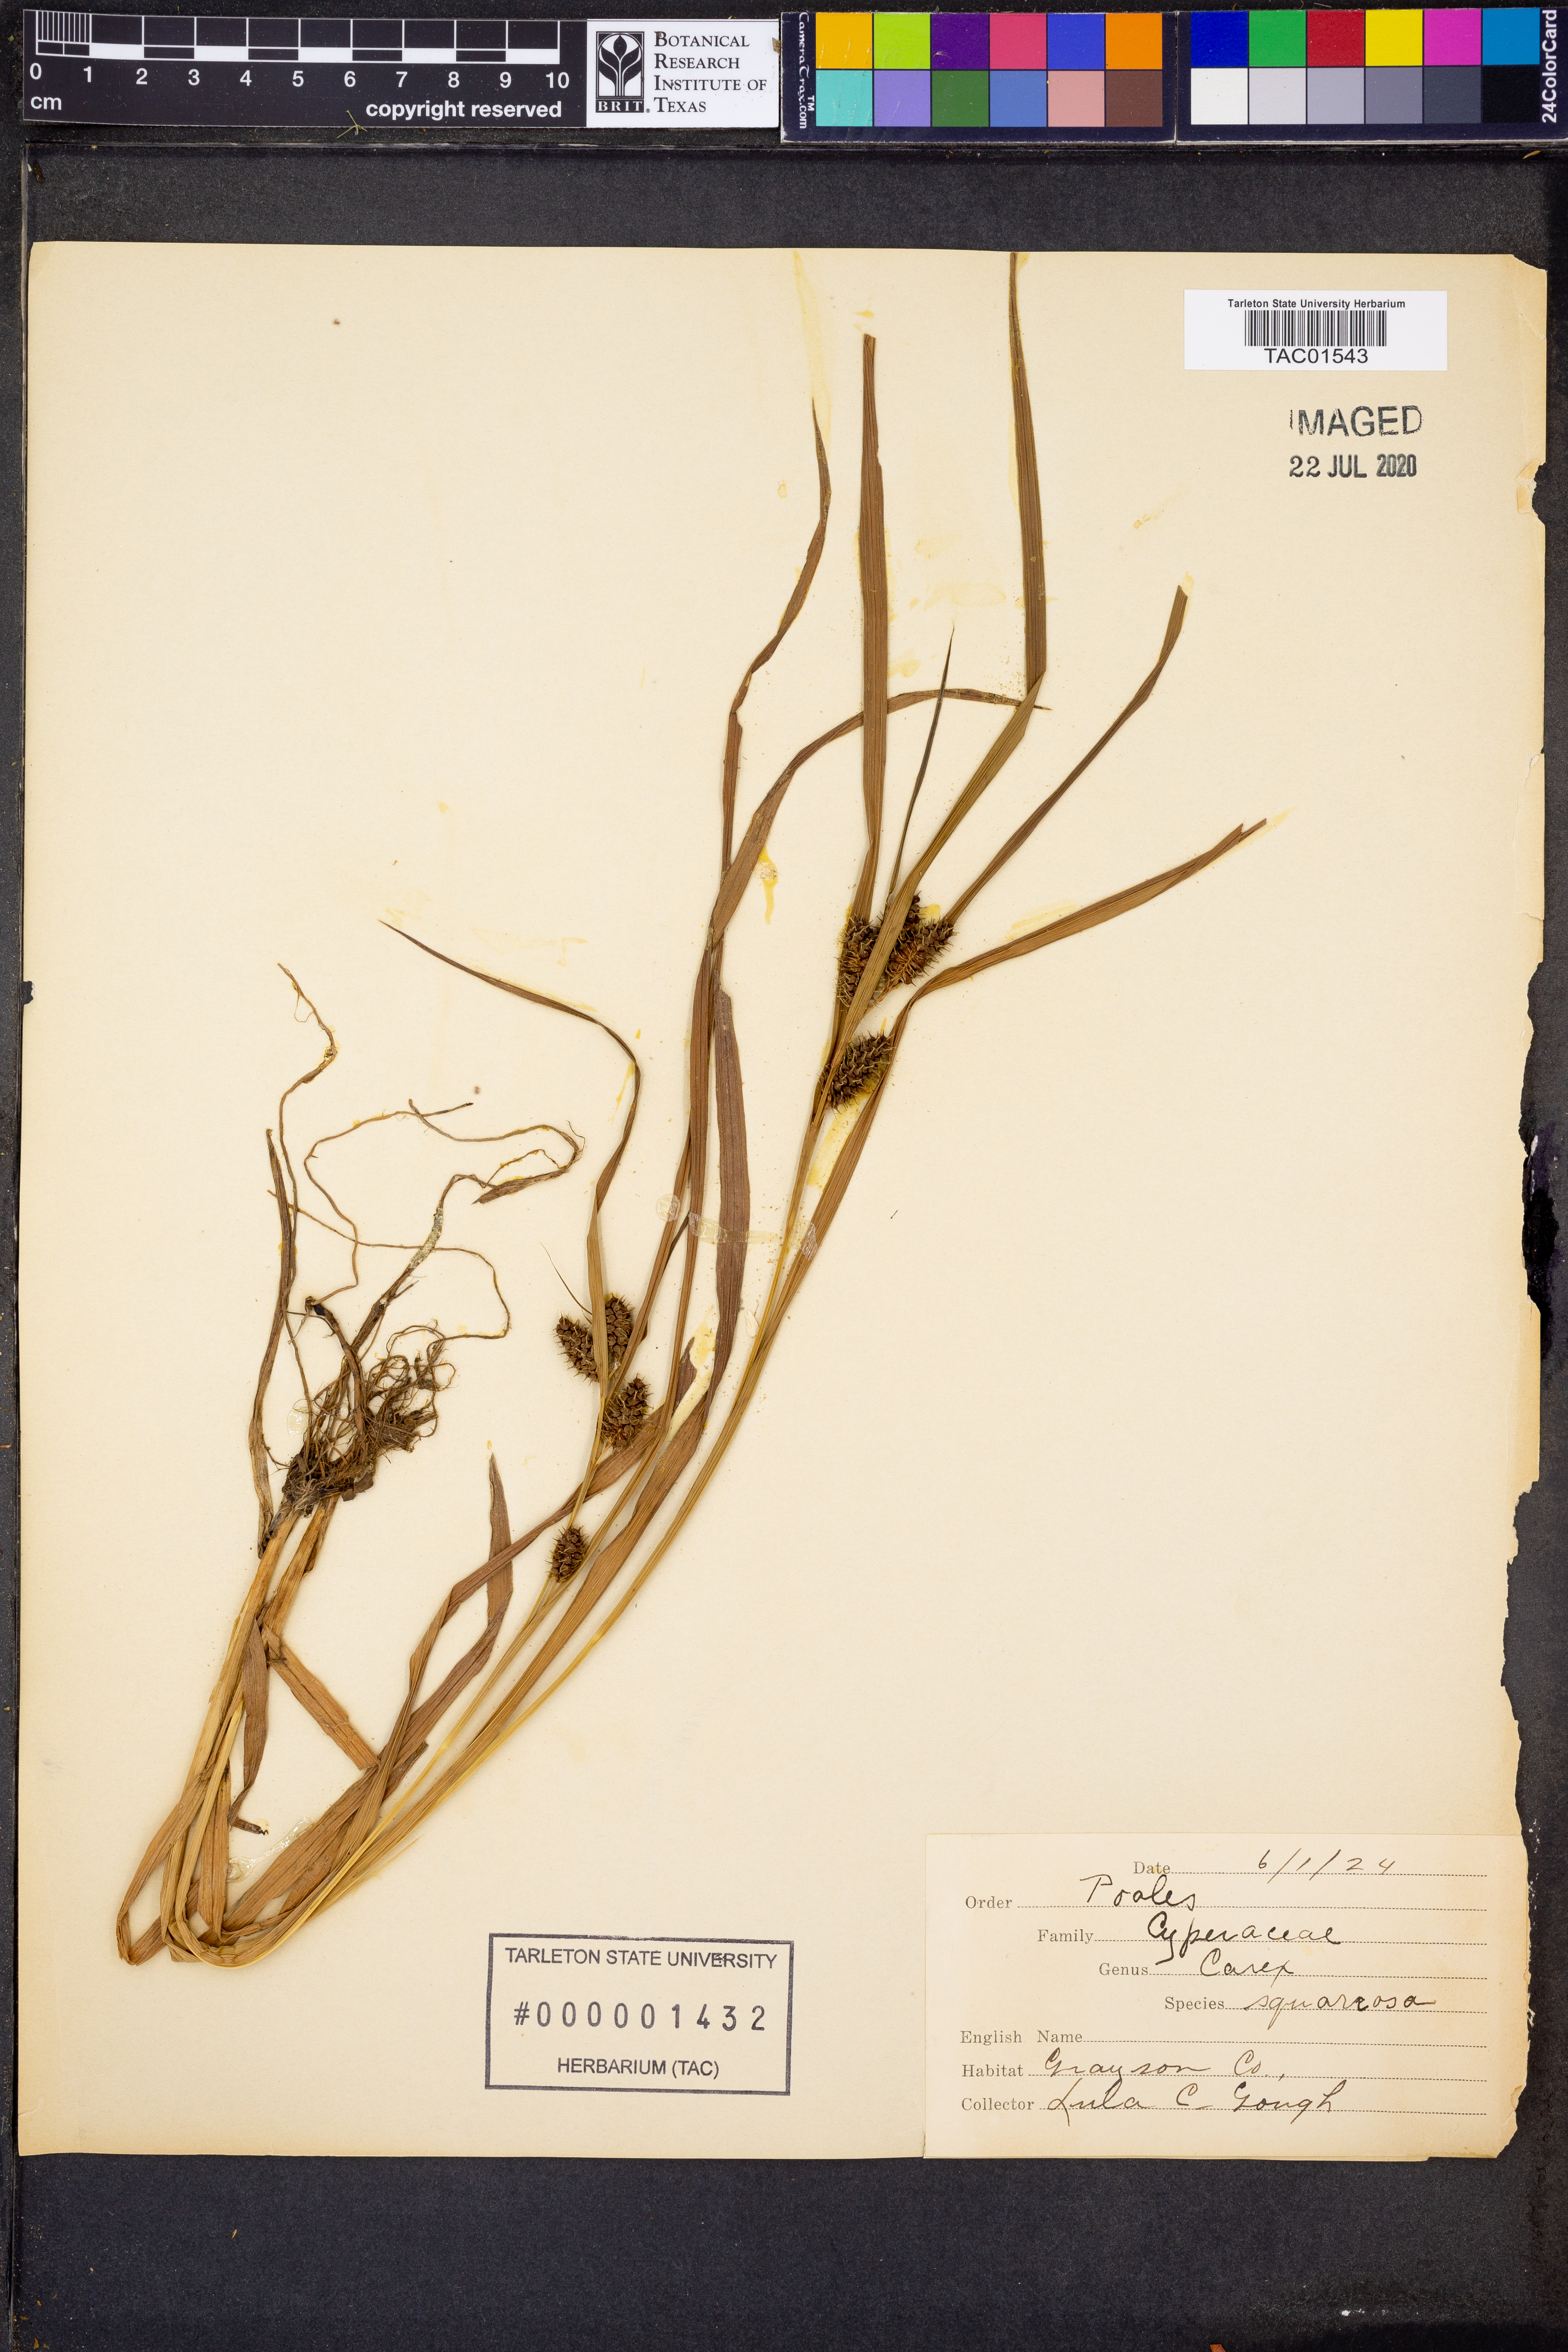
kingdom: Plantae
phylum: Tracheophyta
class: Liliopsida
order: Poales
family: Cyperaceae
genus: Carex
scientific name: Carex squarrosa
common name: Narrow-leaved cattail sedge
